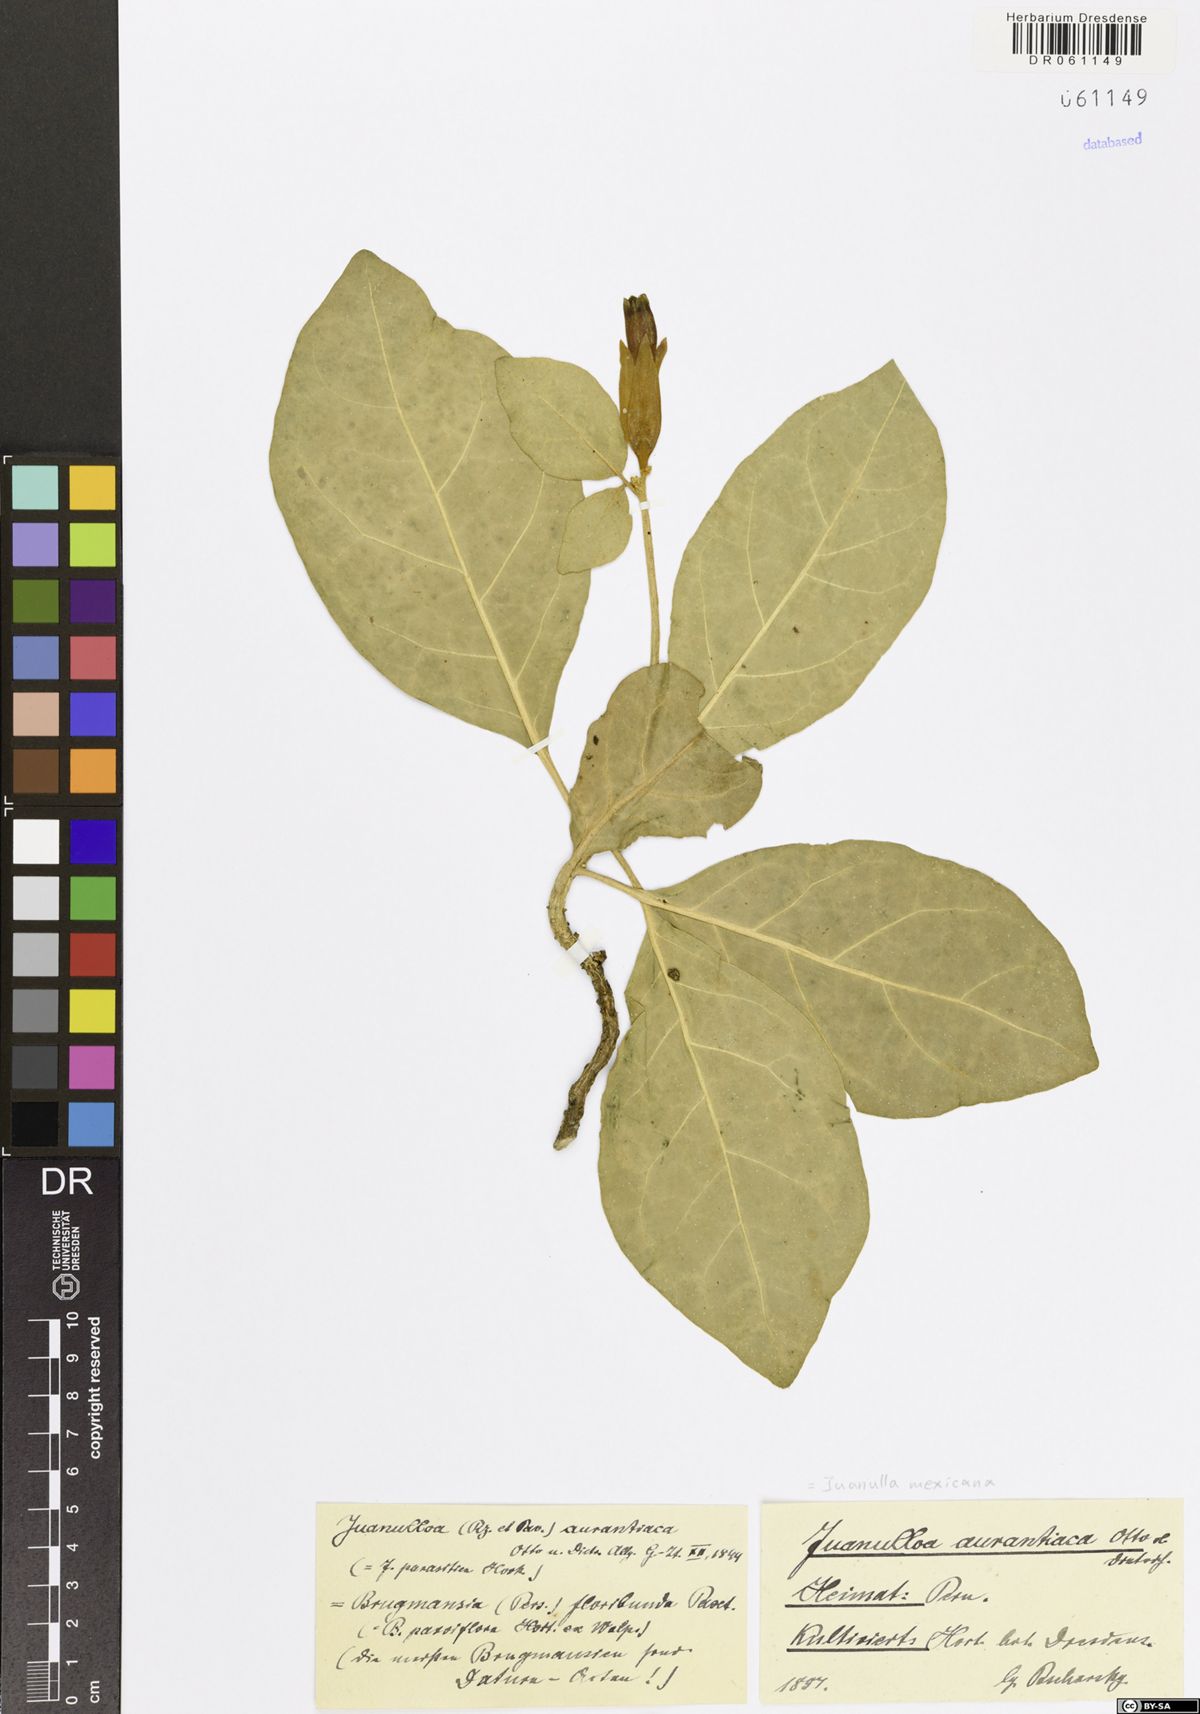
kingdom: Plantae
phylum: Tracheophyta
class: Magnoliopsida
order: Solanales
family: Solanaceae
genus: Juanulloa
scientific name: Juanulloa mexicana
